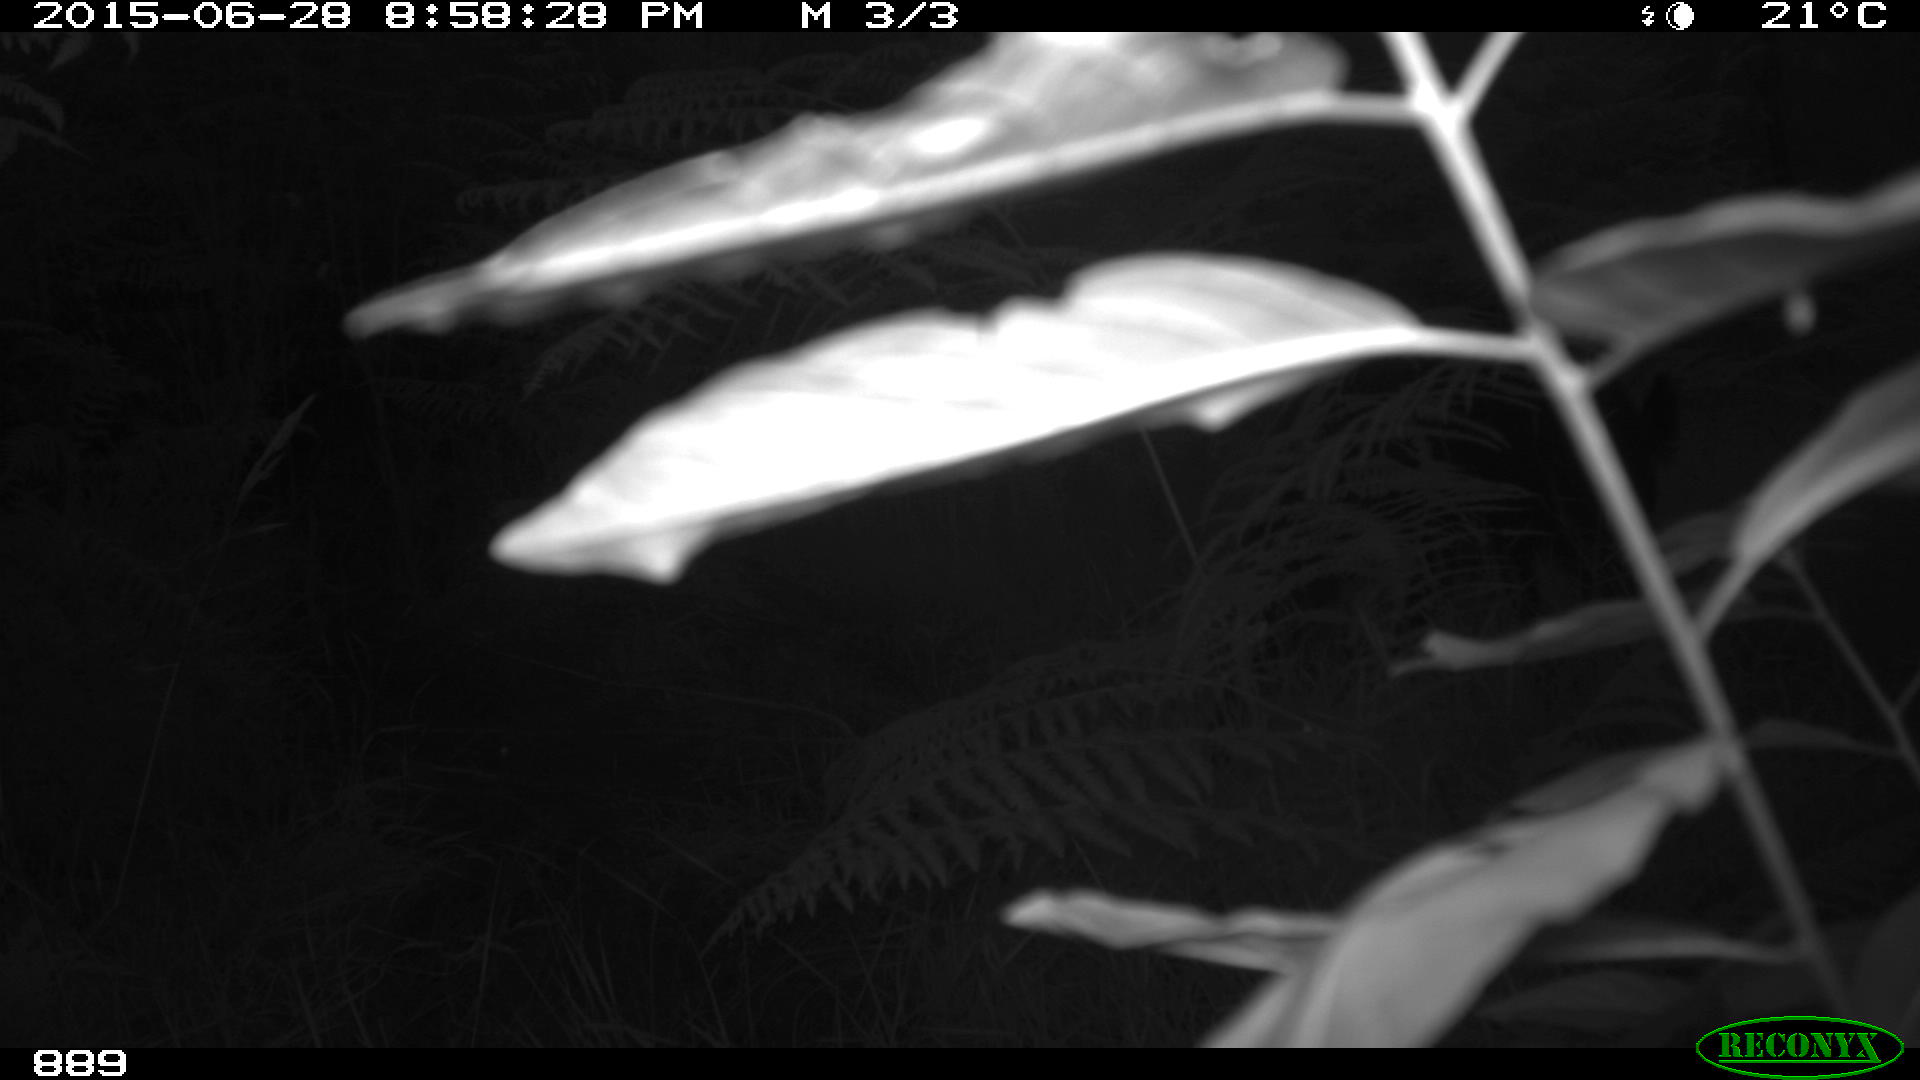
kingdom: Animalia
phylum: Chordata
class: Mammalia
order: Artiodactyla
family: Suidae
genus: Sus
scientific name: Sus scrofa
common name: Wild boar
